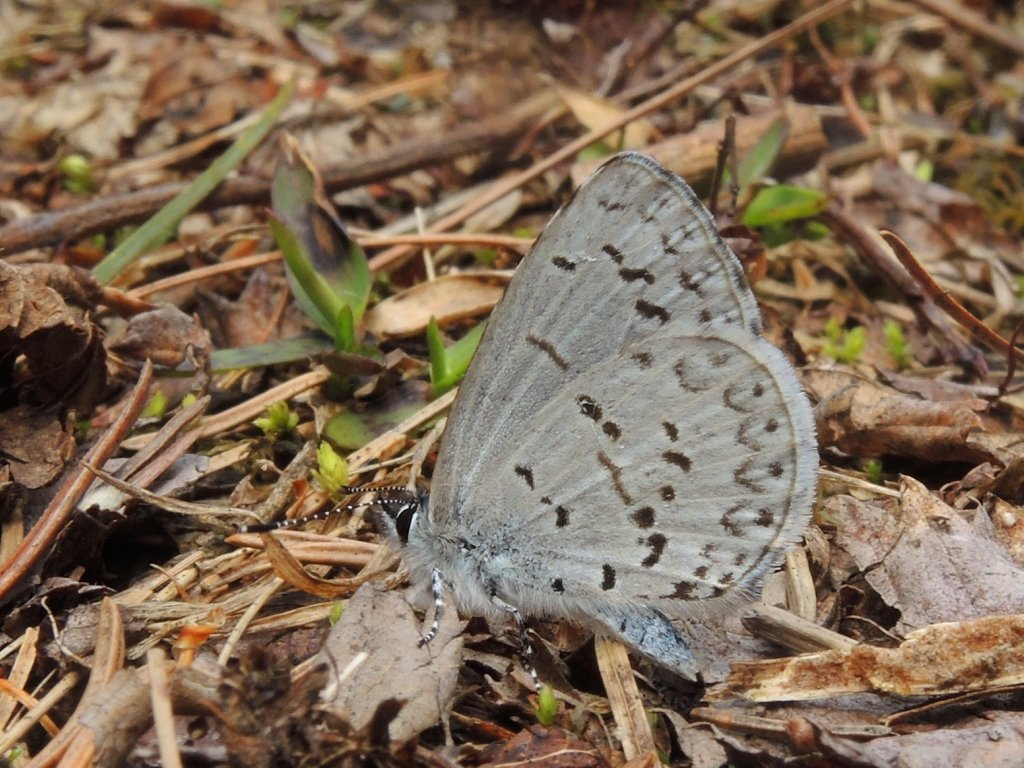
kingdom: Animalia
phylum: Arthropoda
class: Insecta
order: Lepidoptera
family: Lycaenidae
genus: Celastrina
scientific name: Celastrina lucia
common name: Northern Spring Azure
